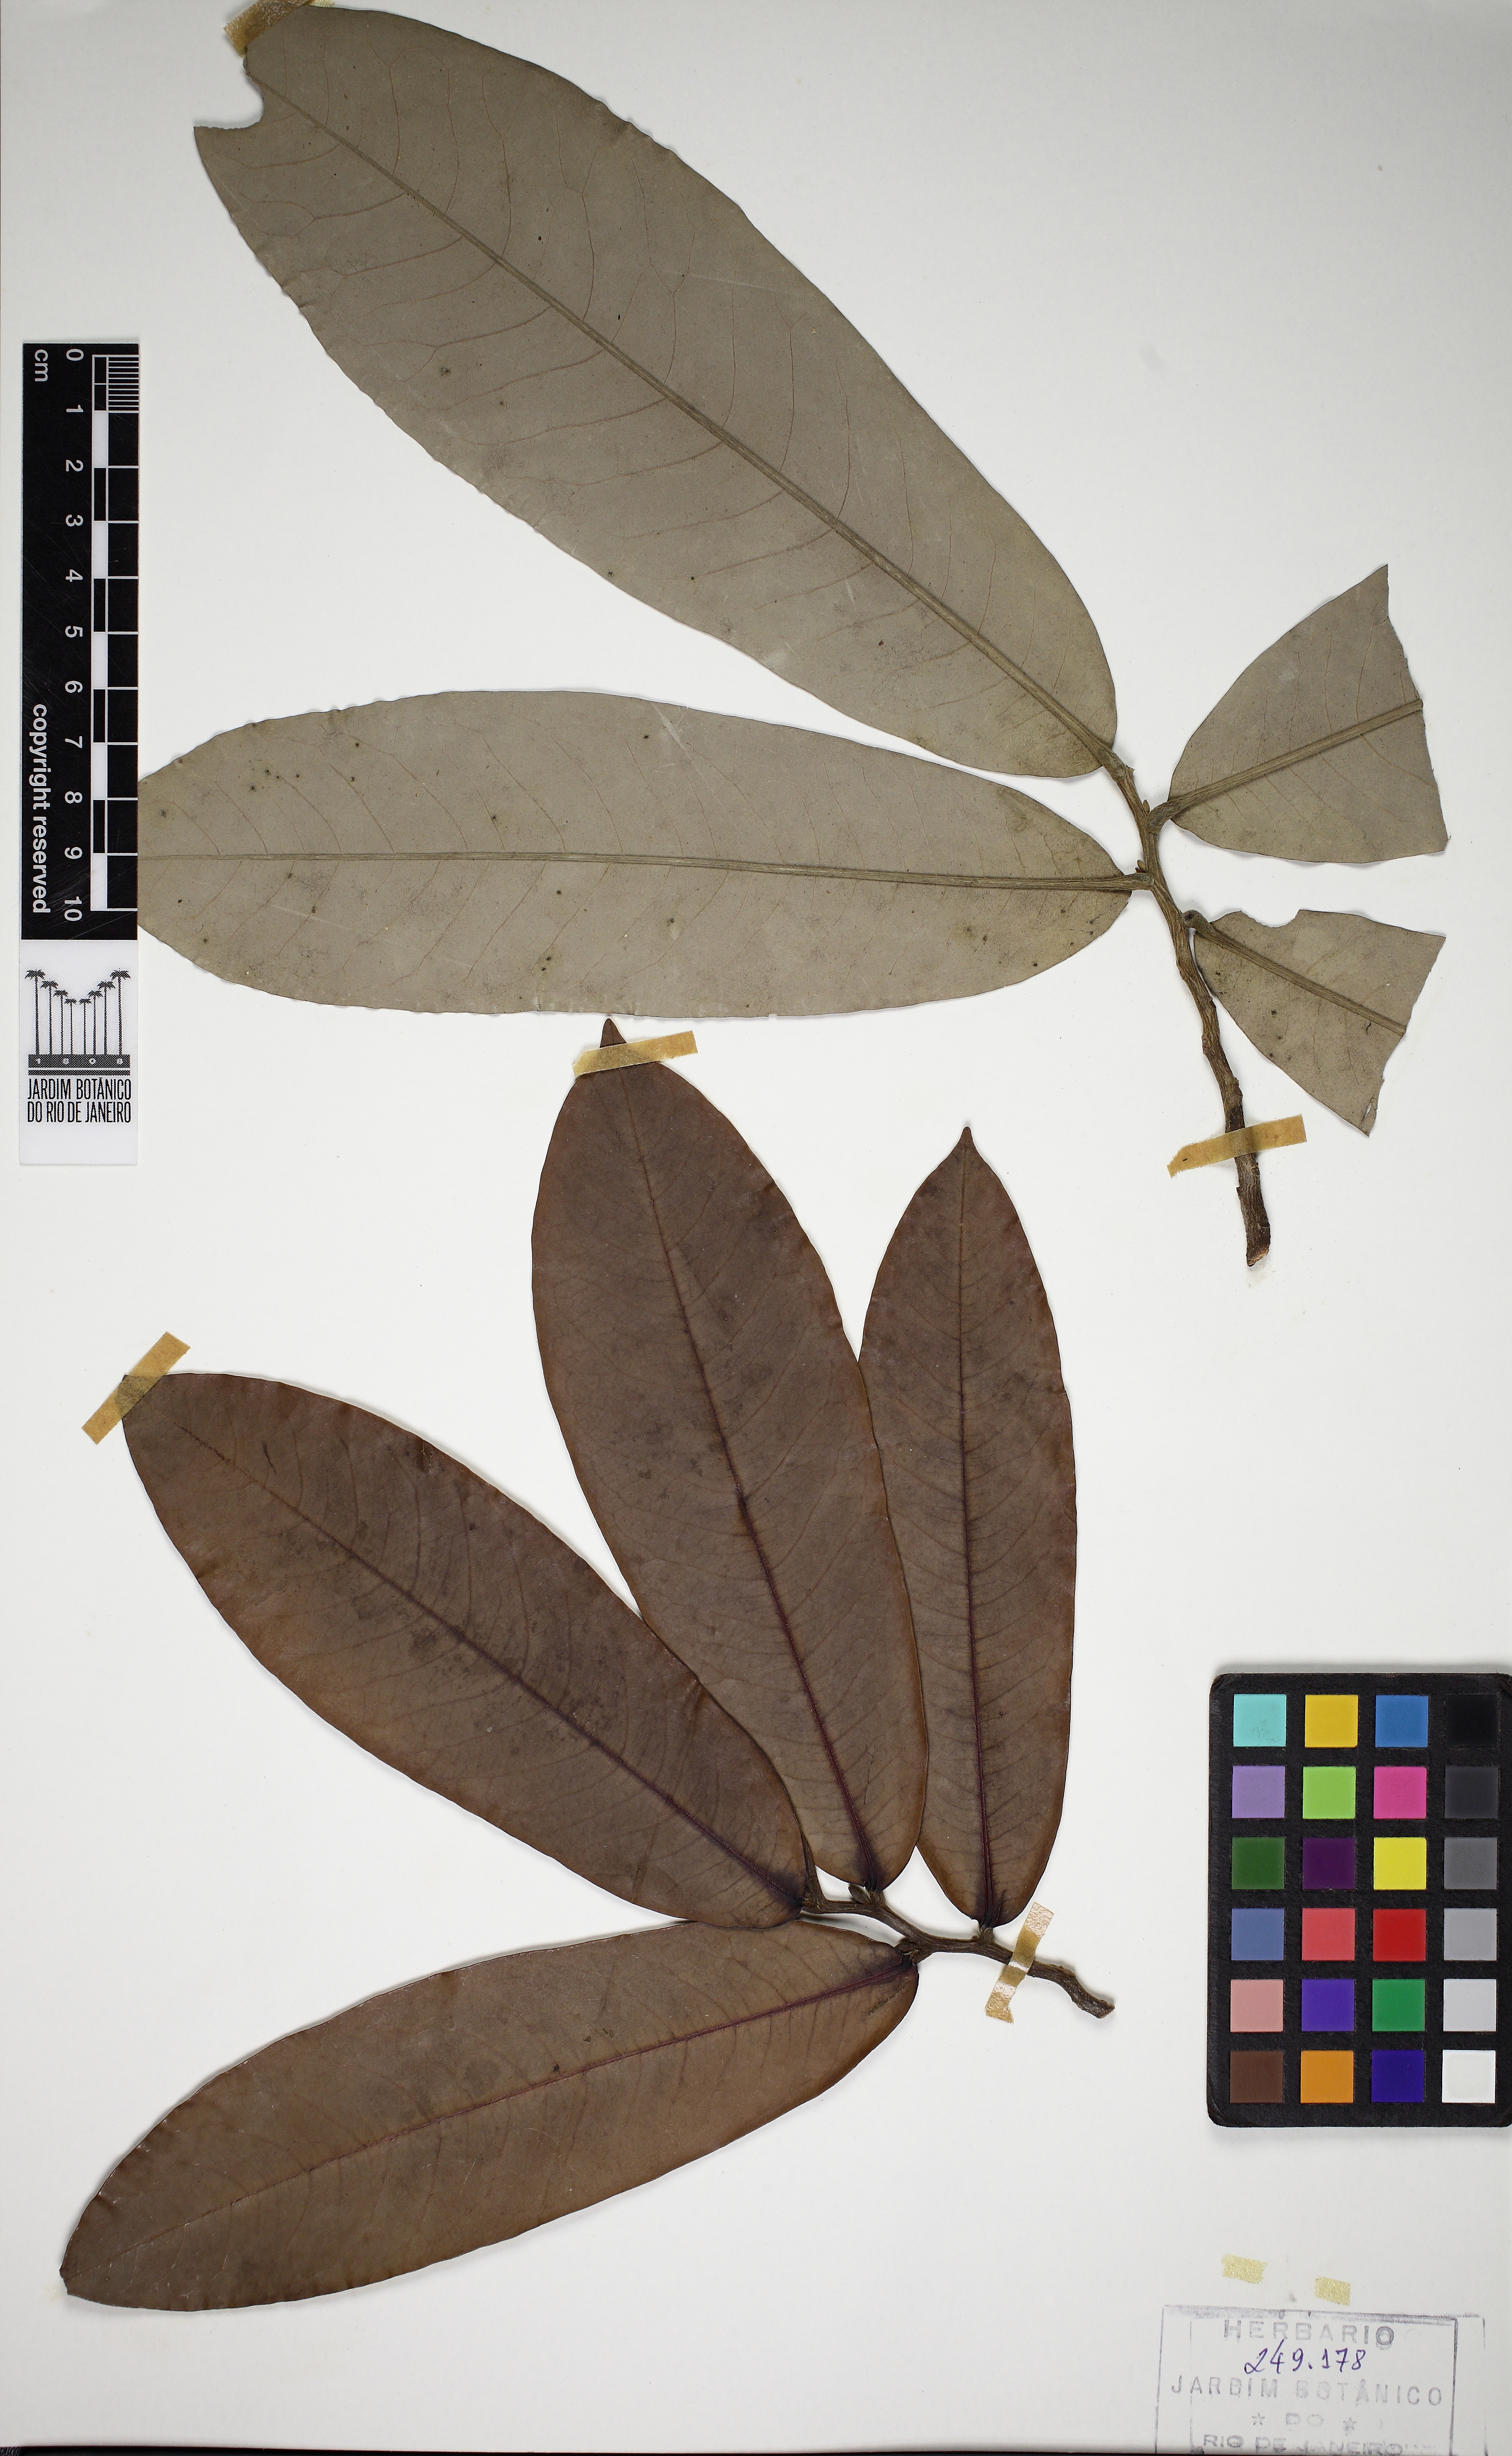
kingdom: Plantae
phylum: Tracheophyta
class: Magnoliopsida
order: Magnoliales
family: Annonaceae
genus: Duguetia
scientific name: Duguetia uniflora
